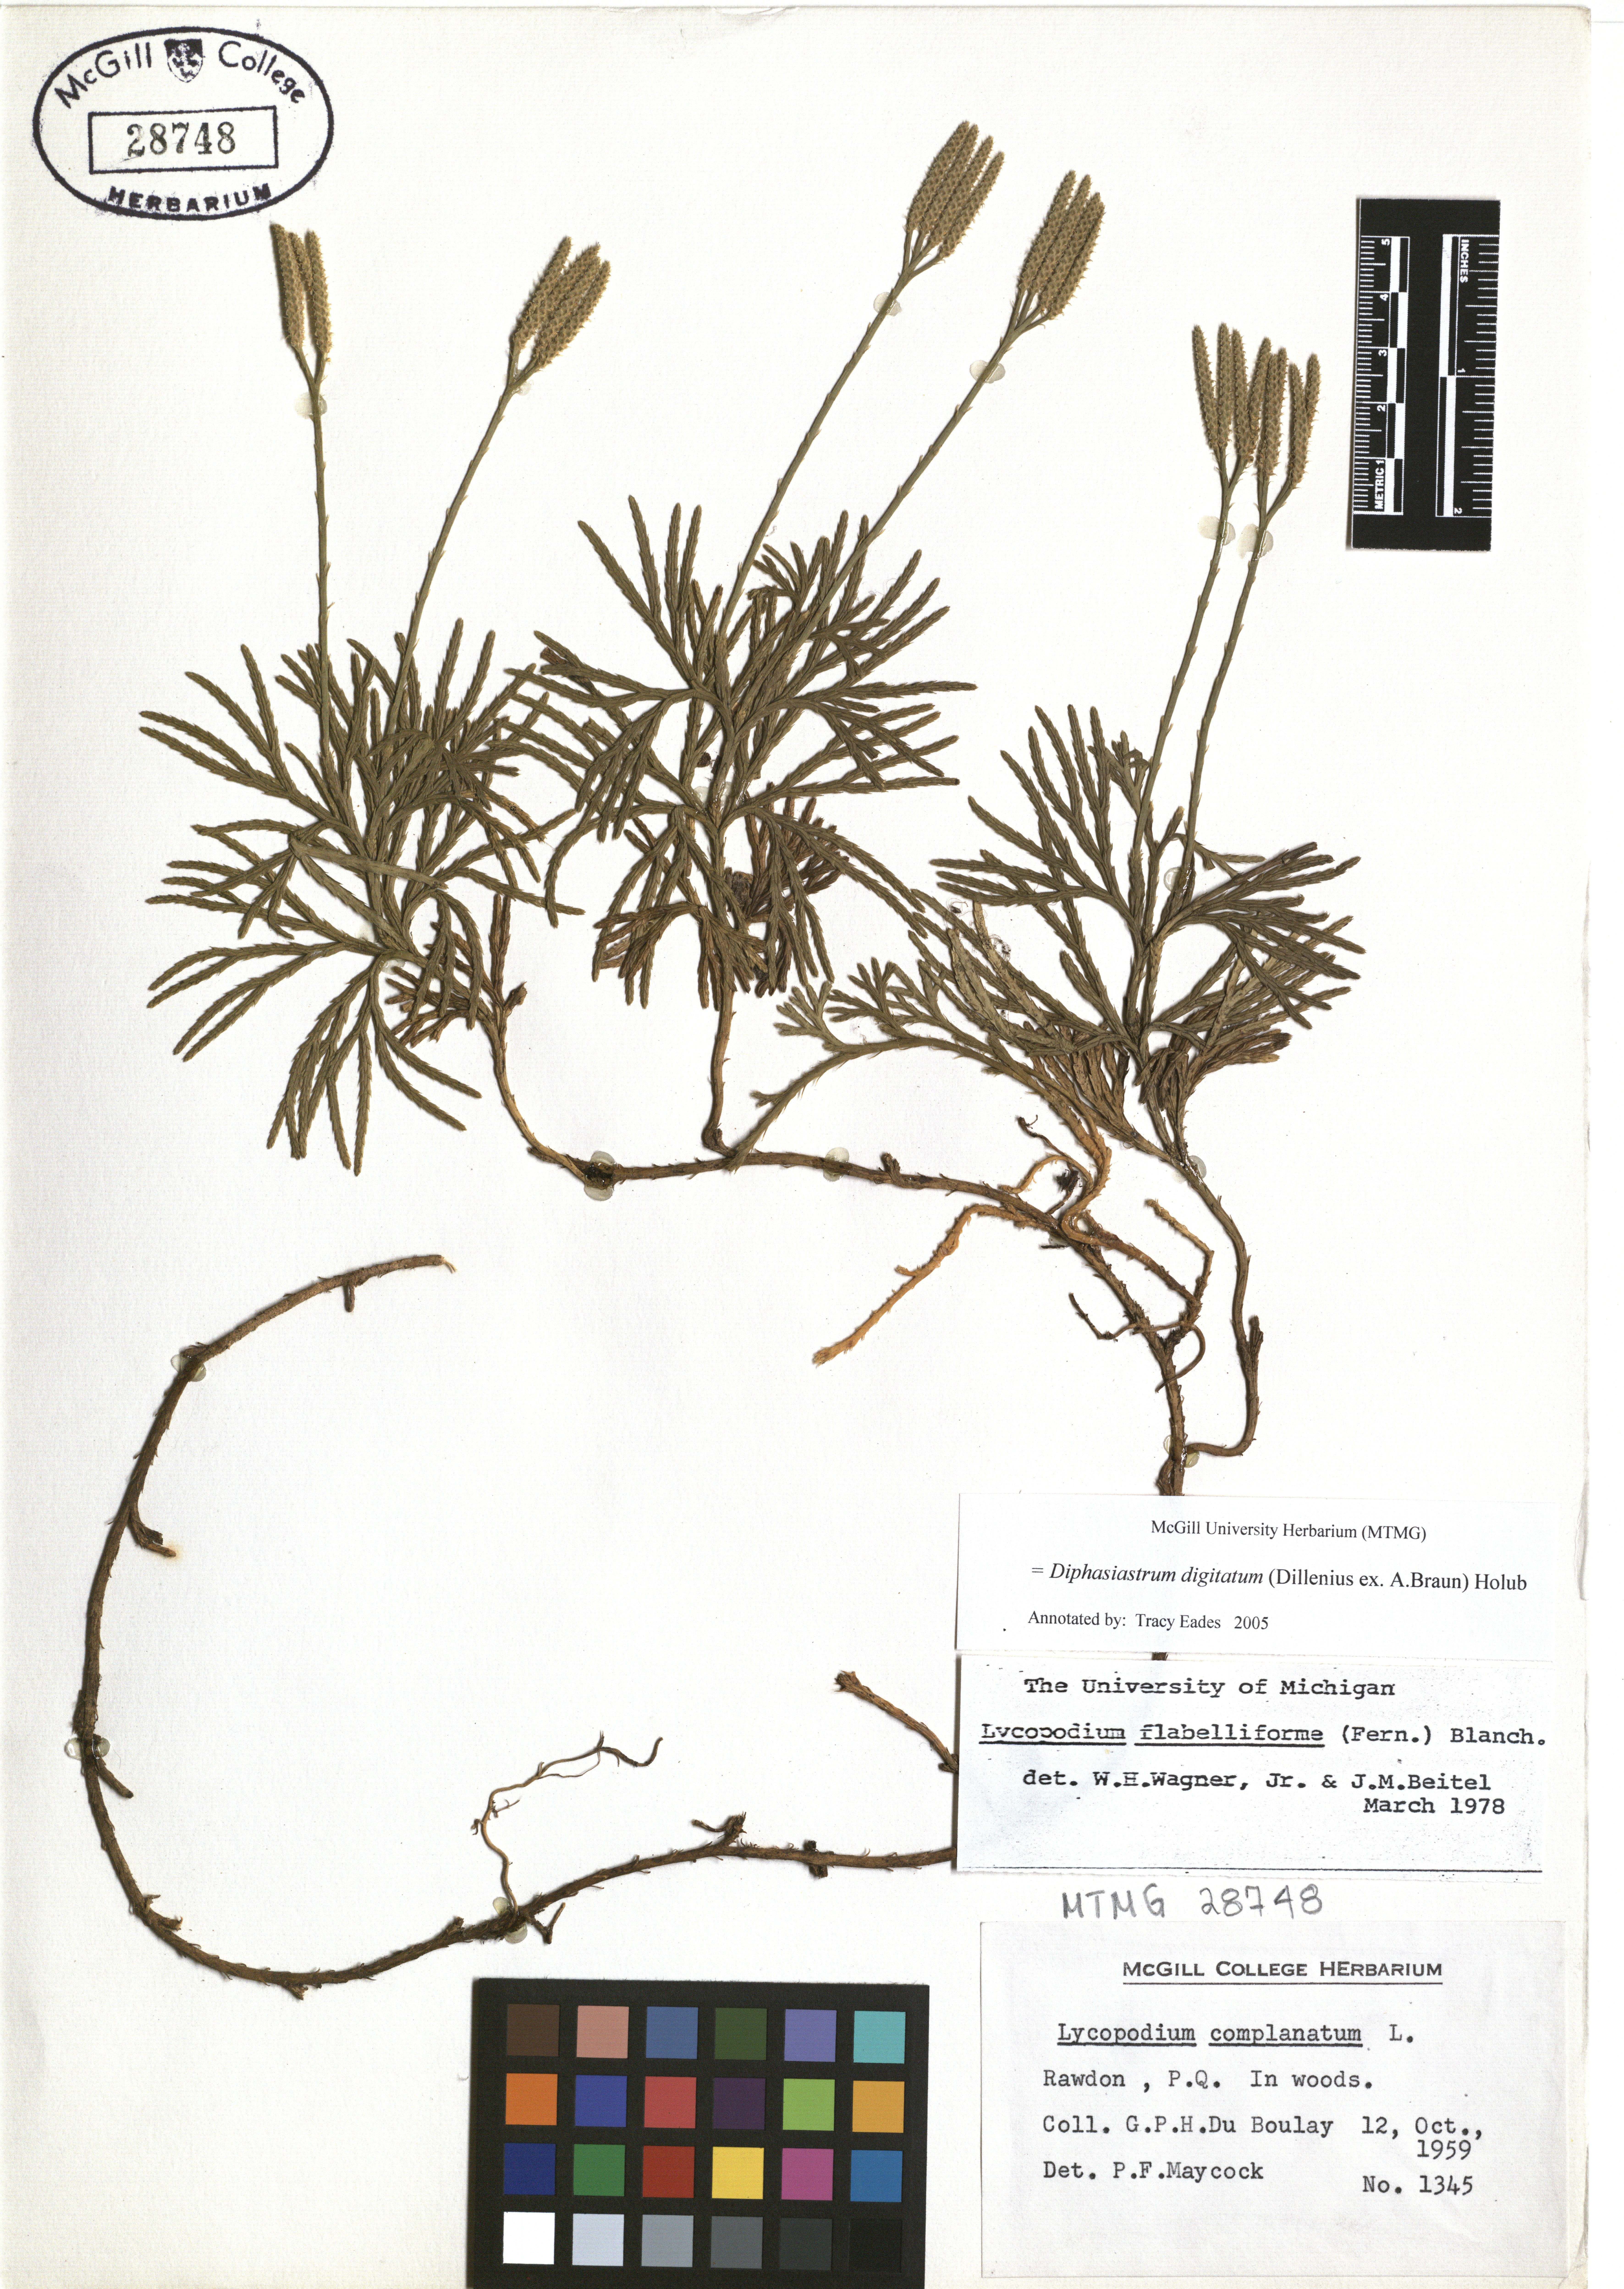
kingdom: Plantae
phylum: Tracheophyta
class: Lycopodiopsida
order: Lycopodiales
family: Lycopodiaceae
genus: Diphasiastrum
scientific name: Diphasiastrum digitatum
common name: Southern running-pine
